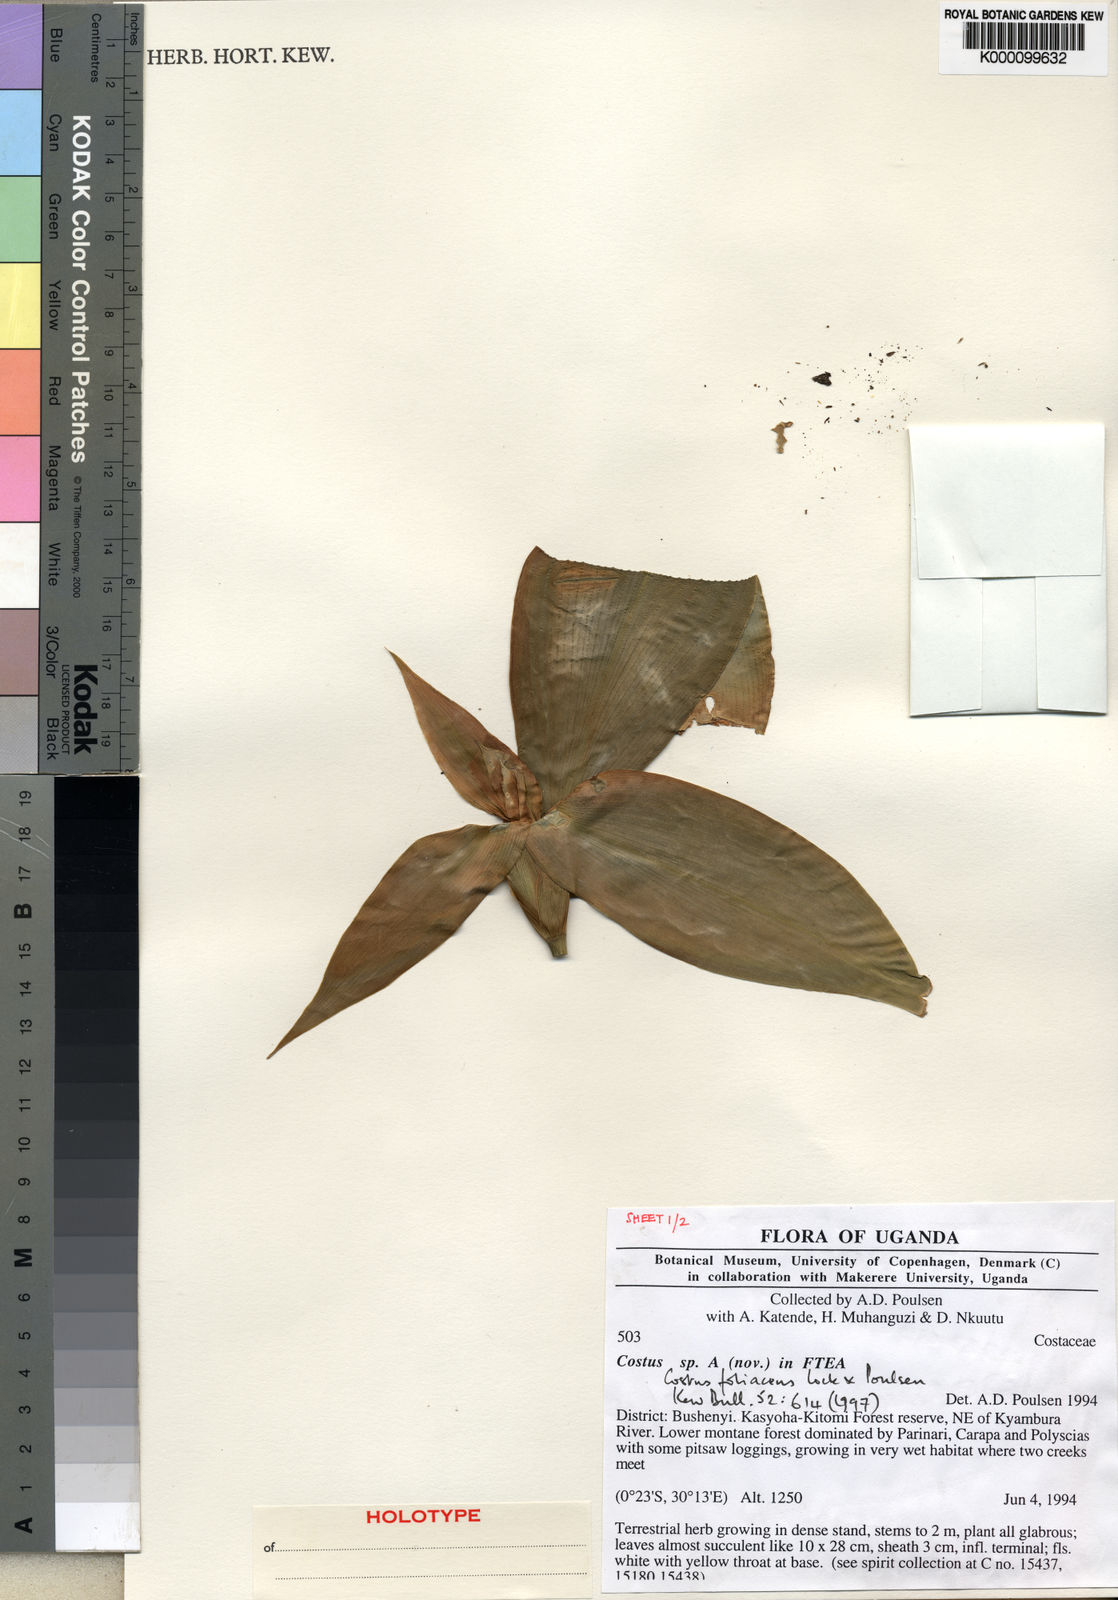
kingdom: Plantae
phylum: Tracheophyta
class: Liliopsida
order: Zingiberales
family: Costaceae
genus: Costus
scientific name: Costus phyllocephalus
